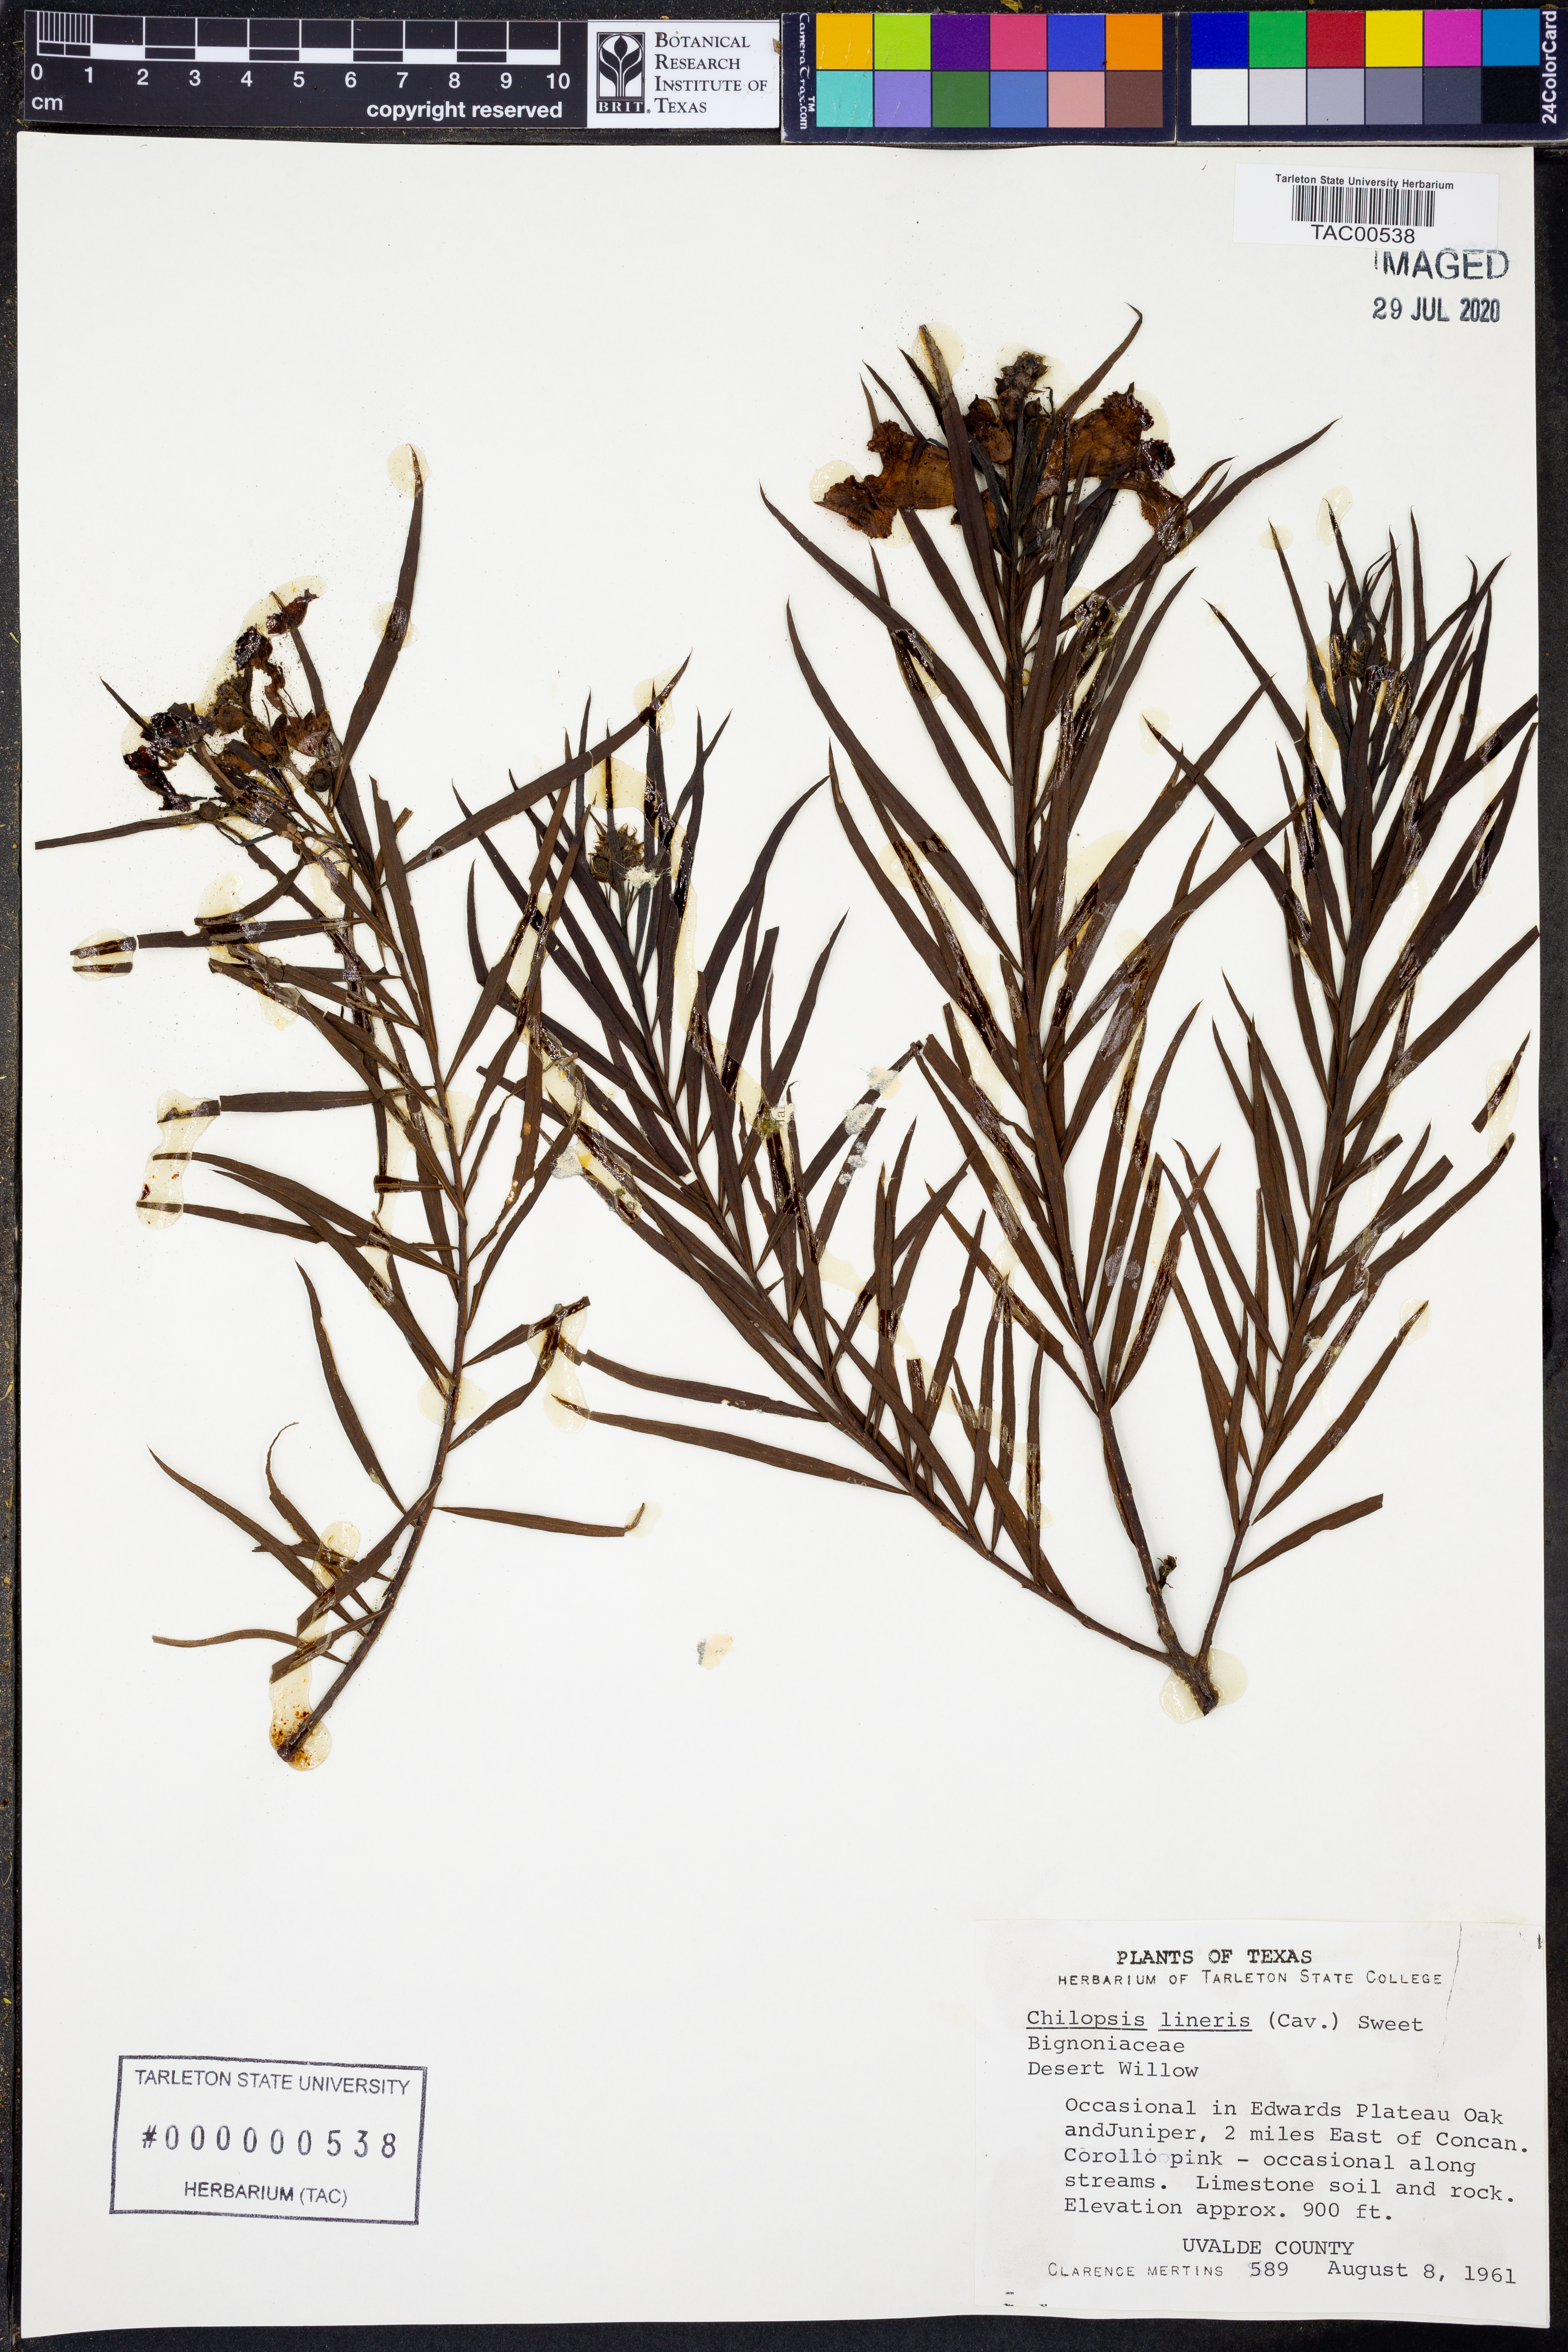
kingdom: Plantae
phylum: Tracheophyta
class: Magnoliopsida
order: Lamiales
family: Bignoniaceae
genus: Chilopsis
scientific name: Chilopsis linearis
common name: Desert-willow
